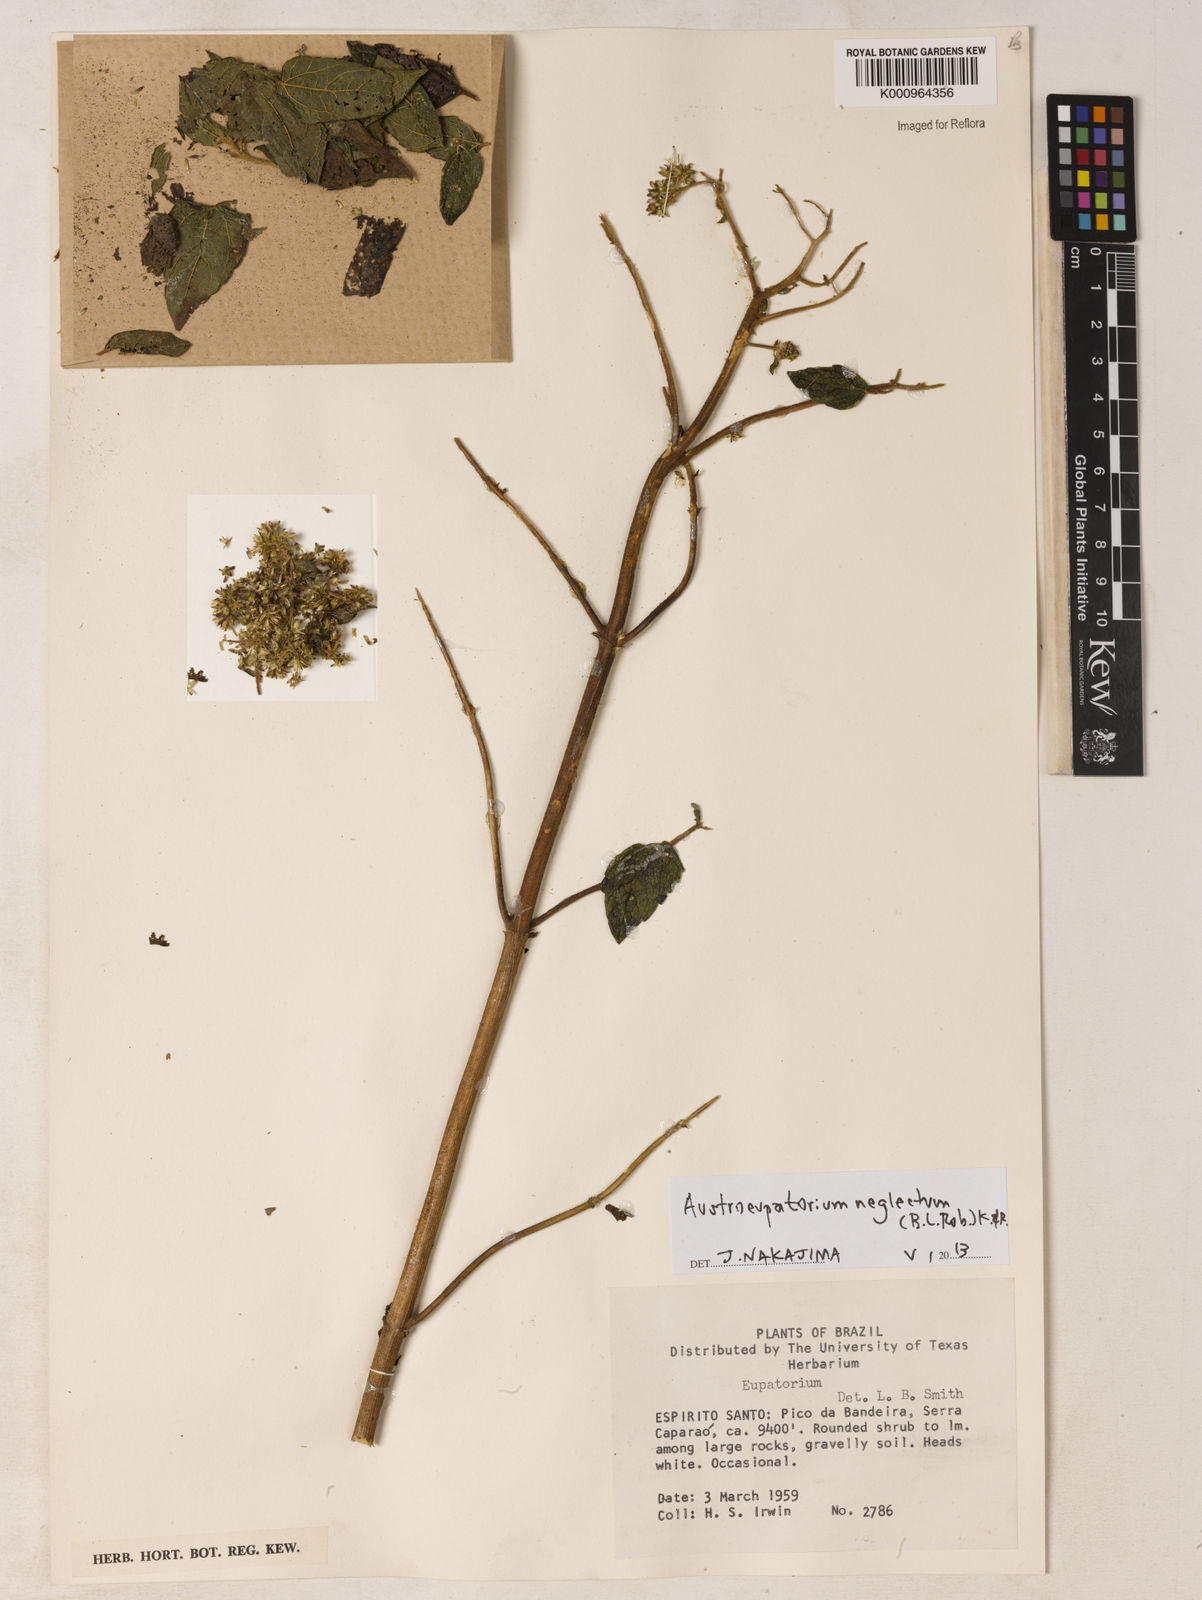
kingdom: Plantae
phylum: Tracheophyta
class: Magnoliopsida
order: Asterales
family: Asteraceae
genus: Austroeupatorium
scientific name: Austroeupatorium neglectum
